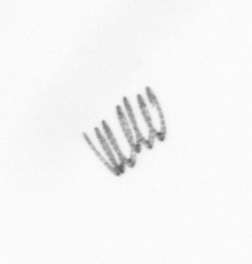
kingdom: Chromista
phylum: Ochrophyta
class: Bacillariophyceae
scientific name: Bacillariophyceae
